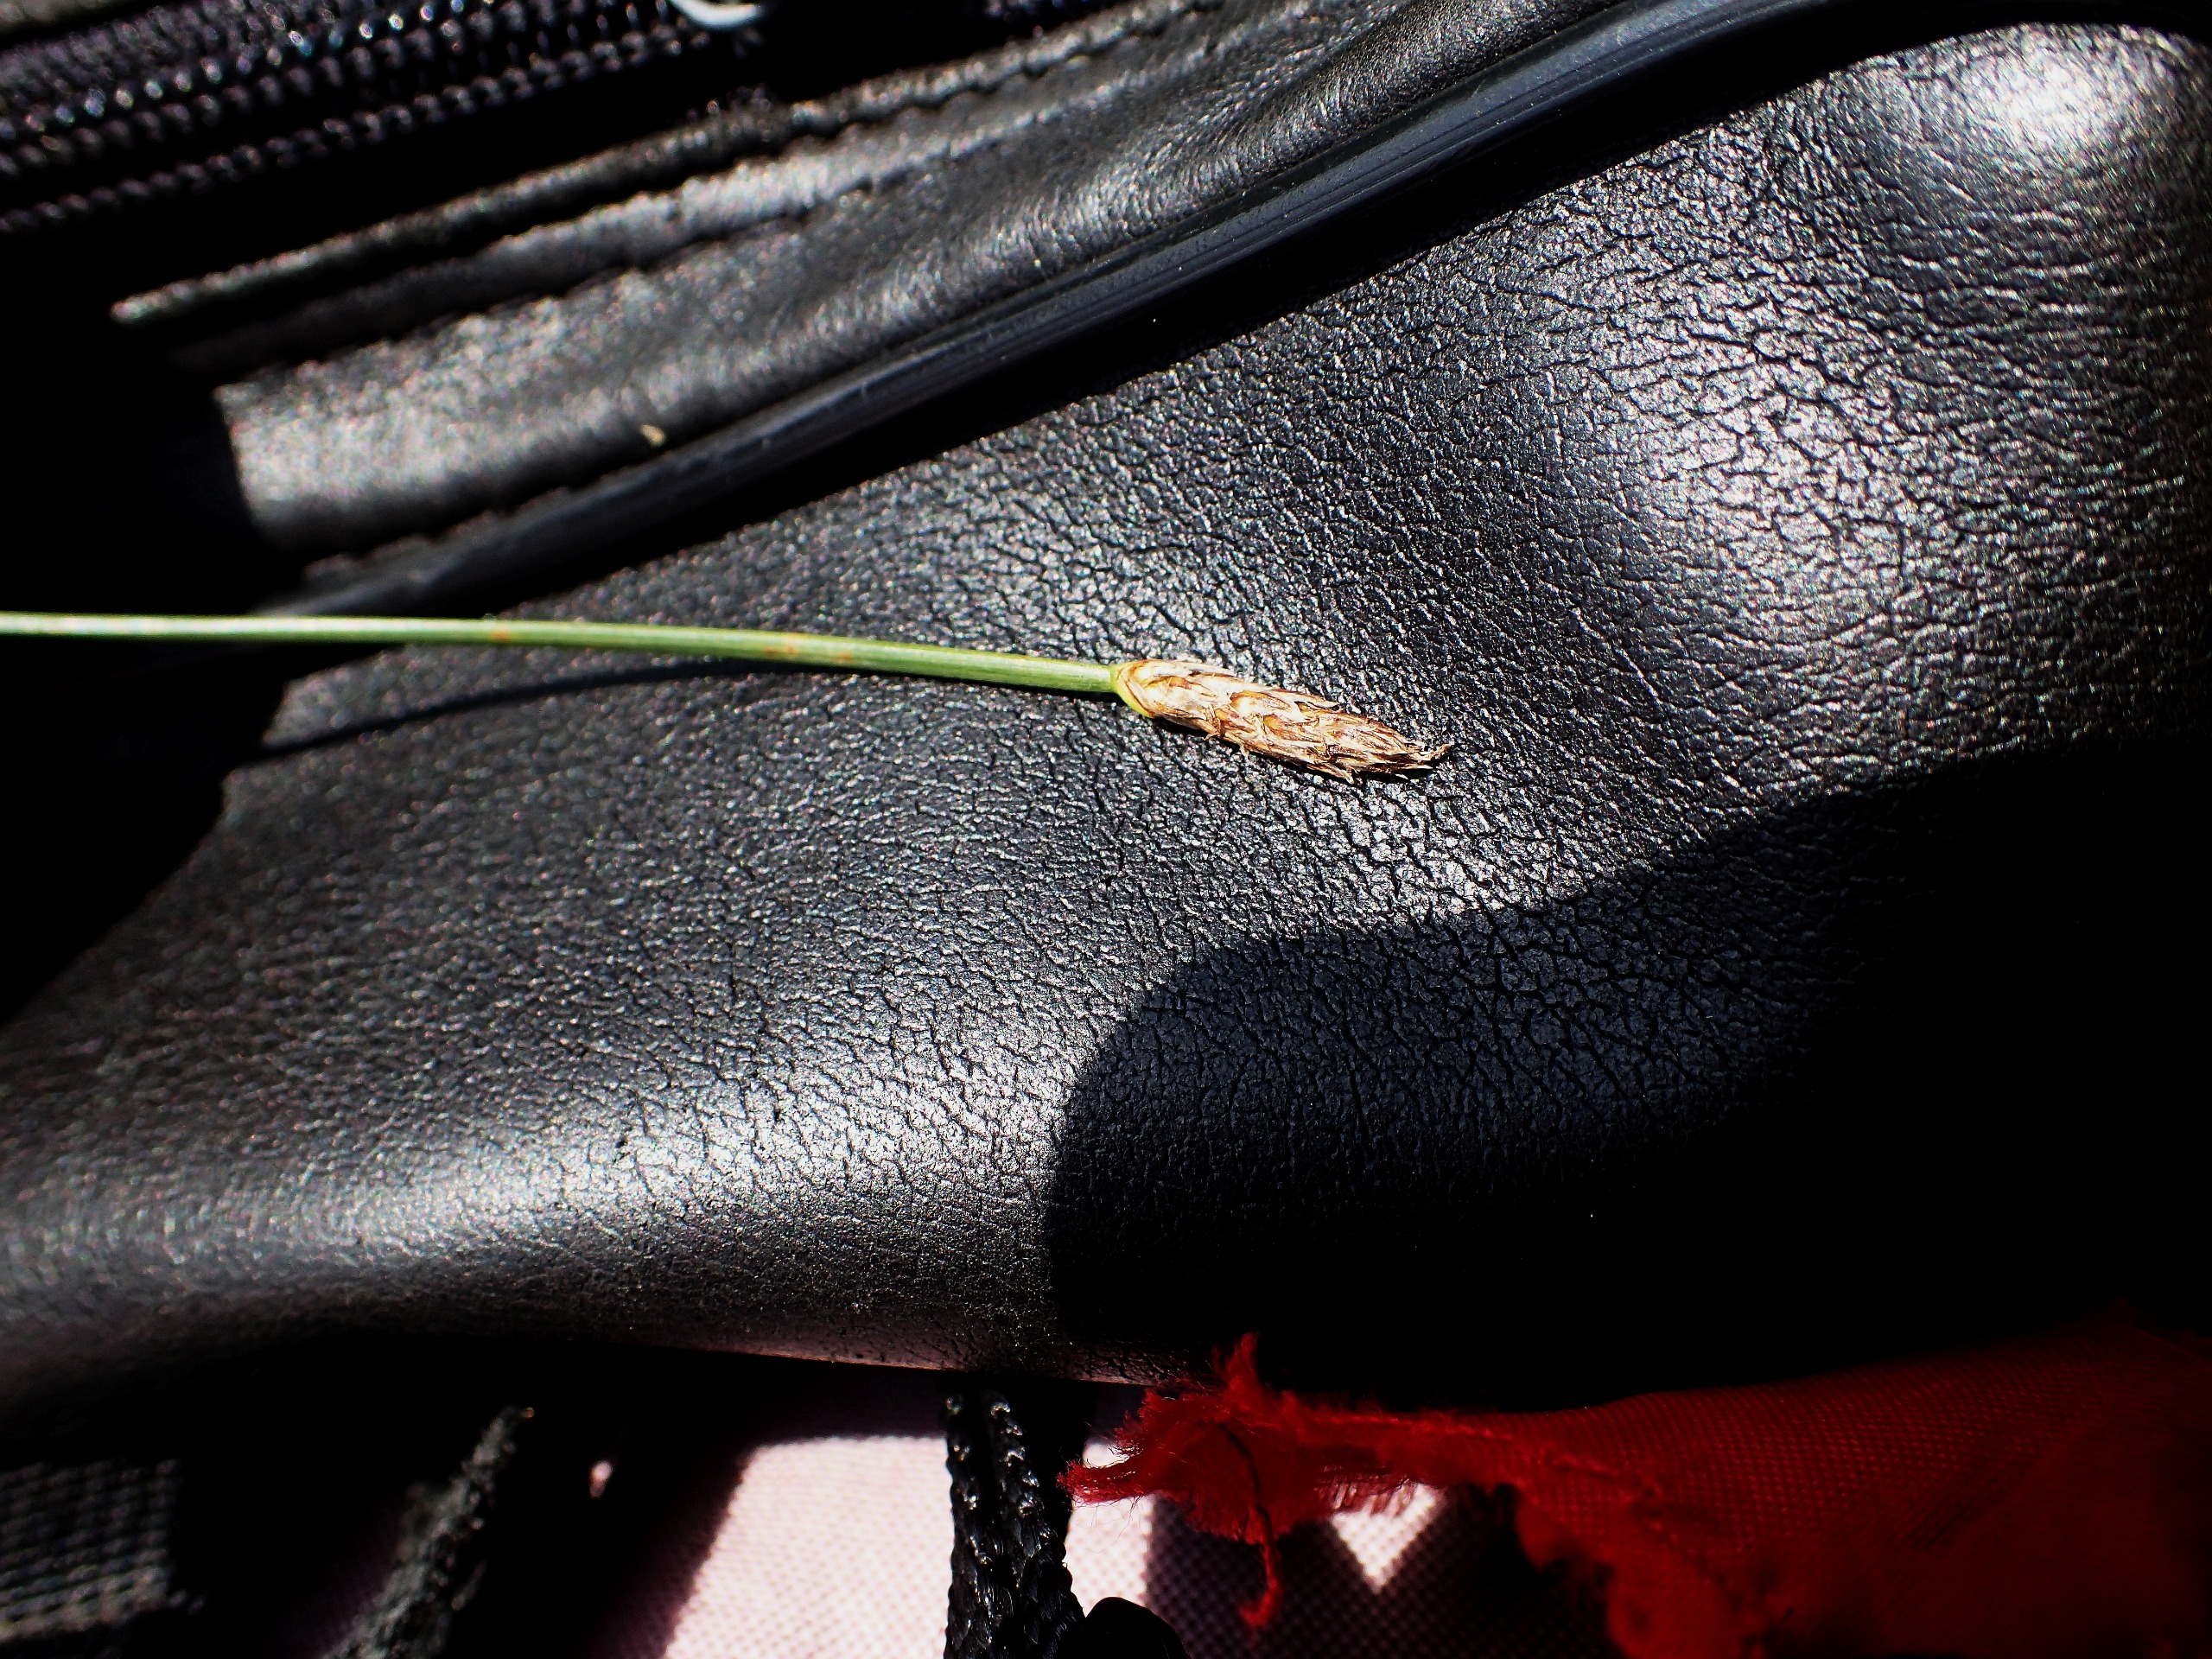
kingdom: Plantae
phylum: Tracheophyta
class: Liliopsida
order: Poales
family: Cyperaceae
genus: Eleocharis
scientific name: Eleocharis palustris
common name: Almindelig sumpstrå
